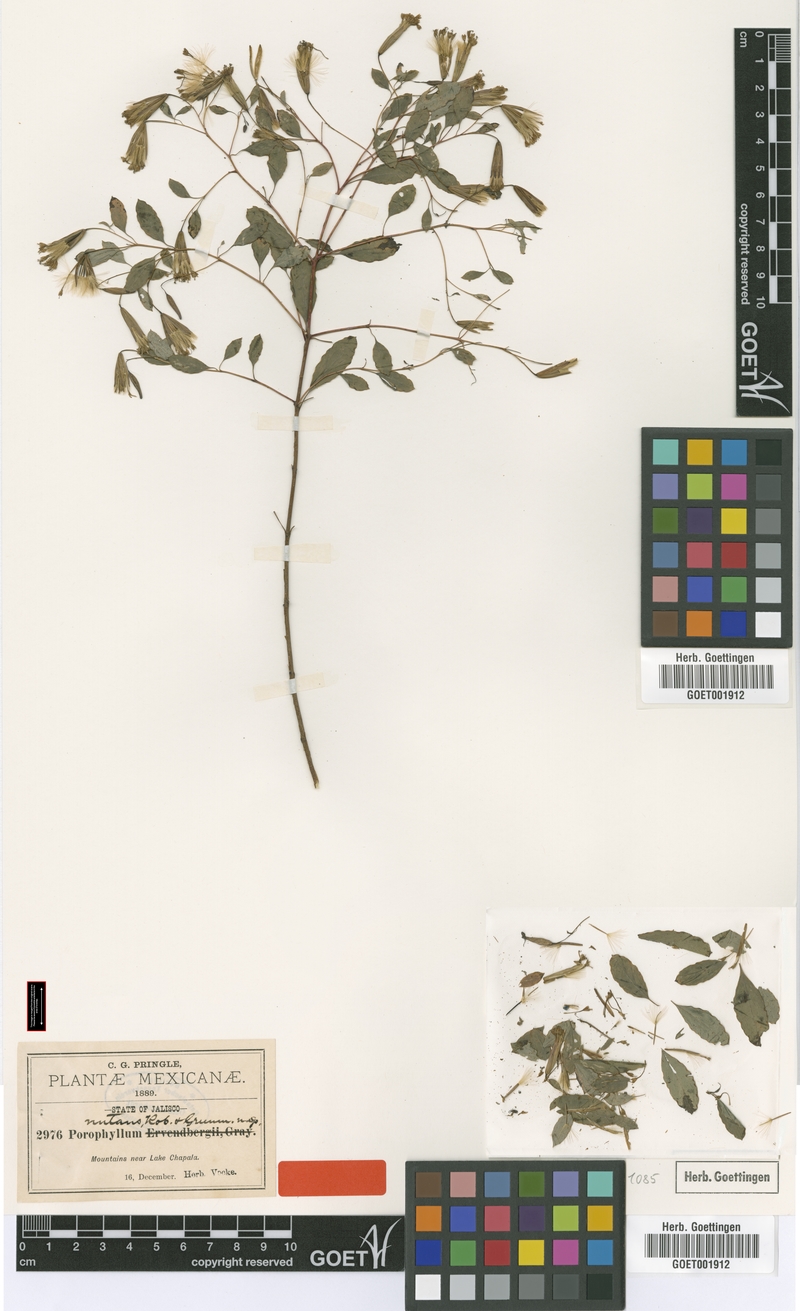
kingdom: Plantae
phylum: Tracheophyta
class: Magnoliopsida
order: Asterales
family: Asteraceae
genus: Porophyllum
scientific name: Porophyllum viridiflorum
